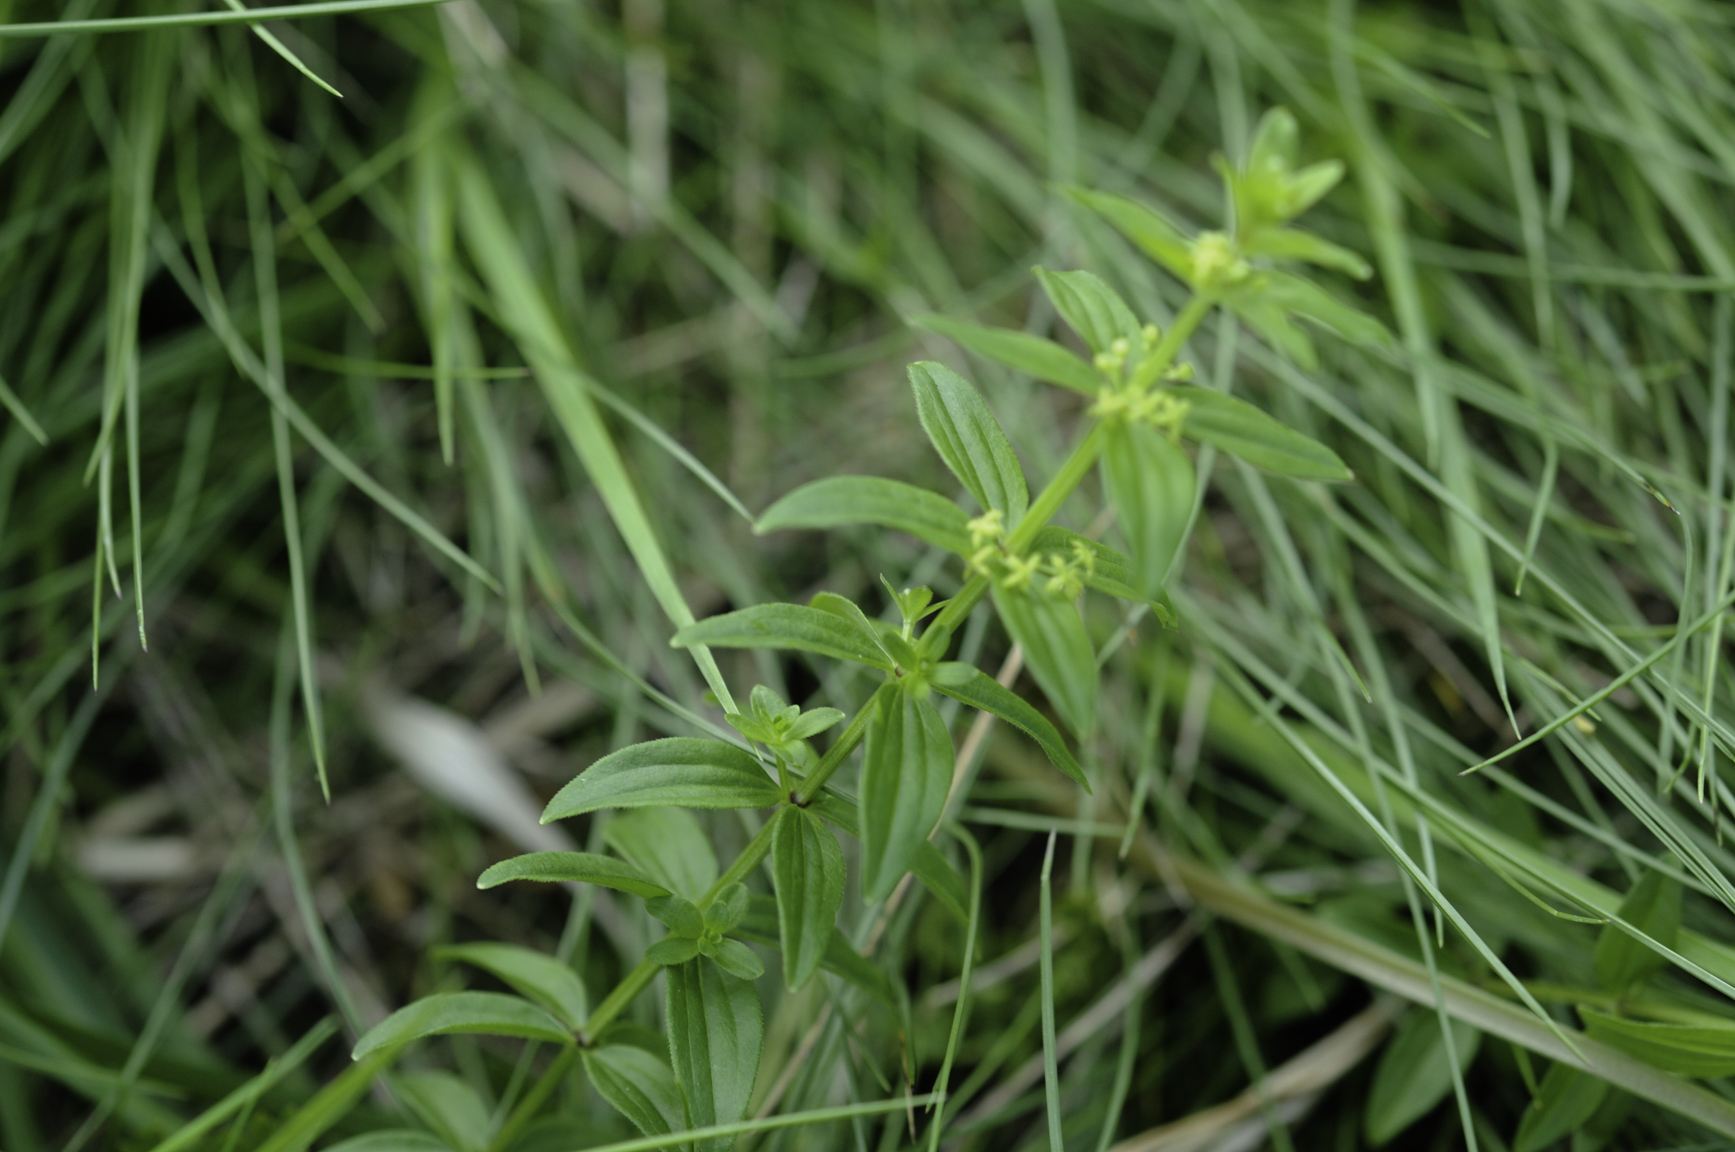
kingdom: Plantae
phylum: Tracheophyta
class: Magnoliopsida
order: Gentianales
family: Rubiaceae
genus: Cruciata
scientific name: Cruciata glabra
